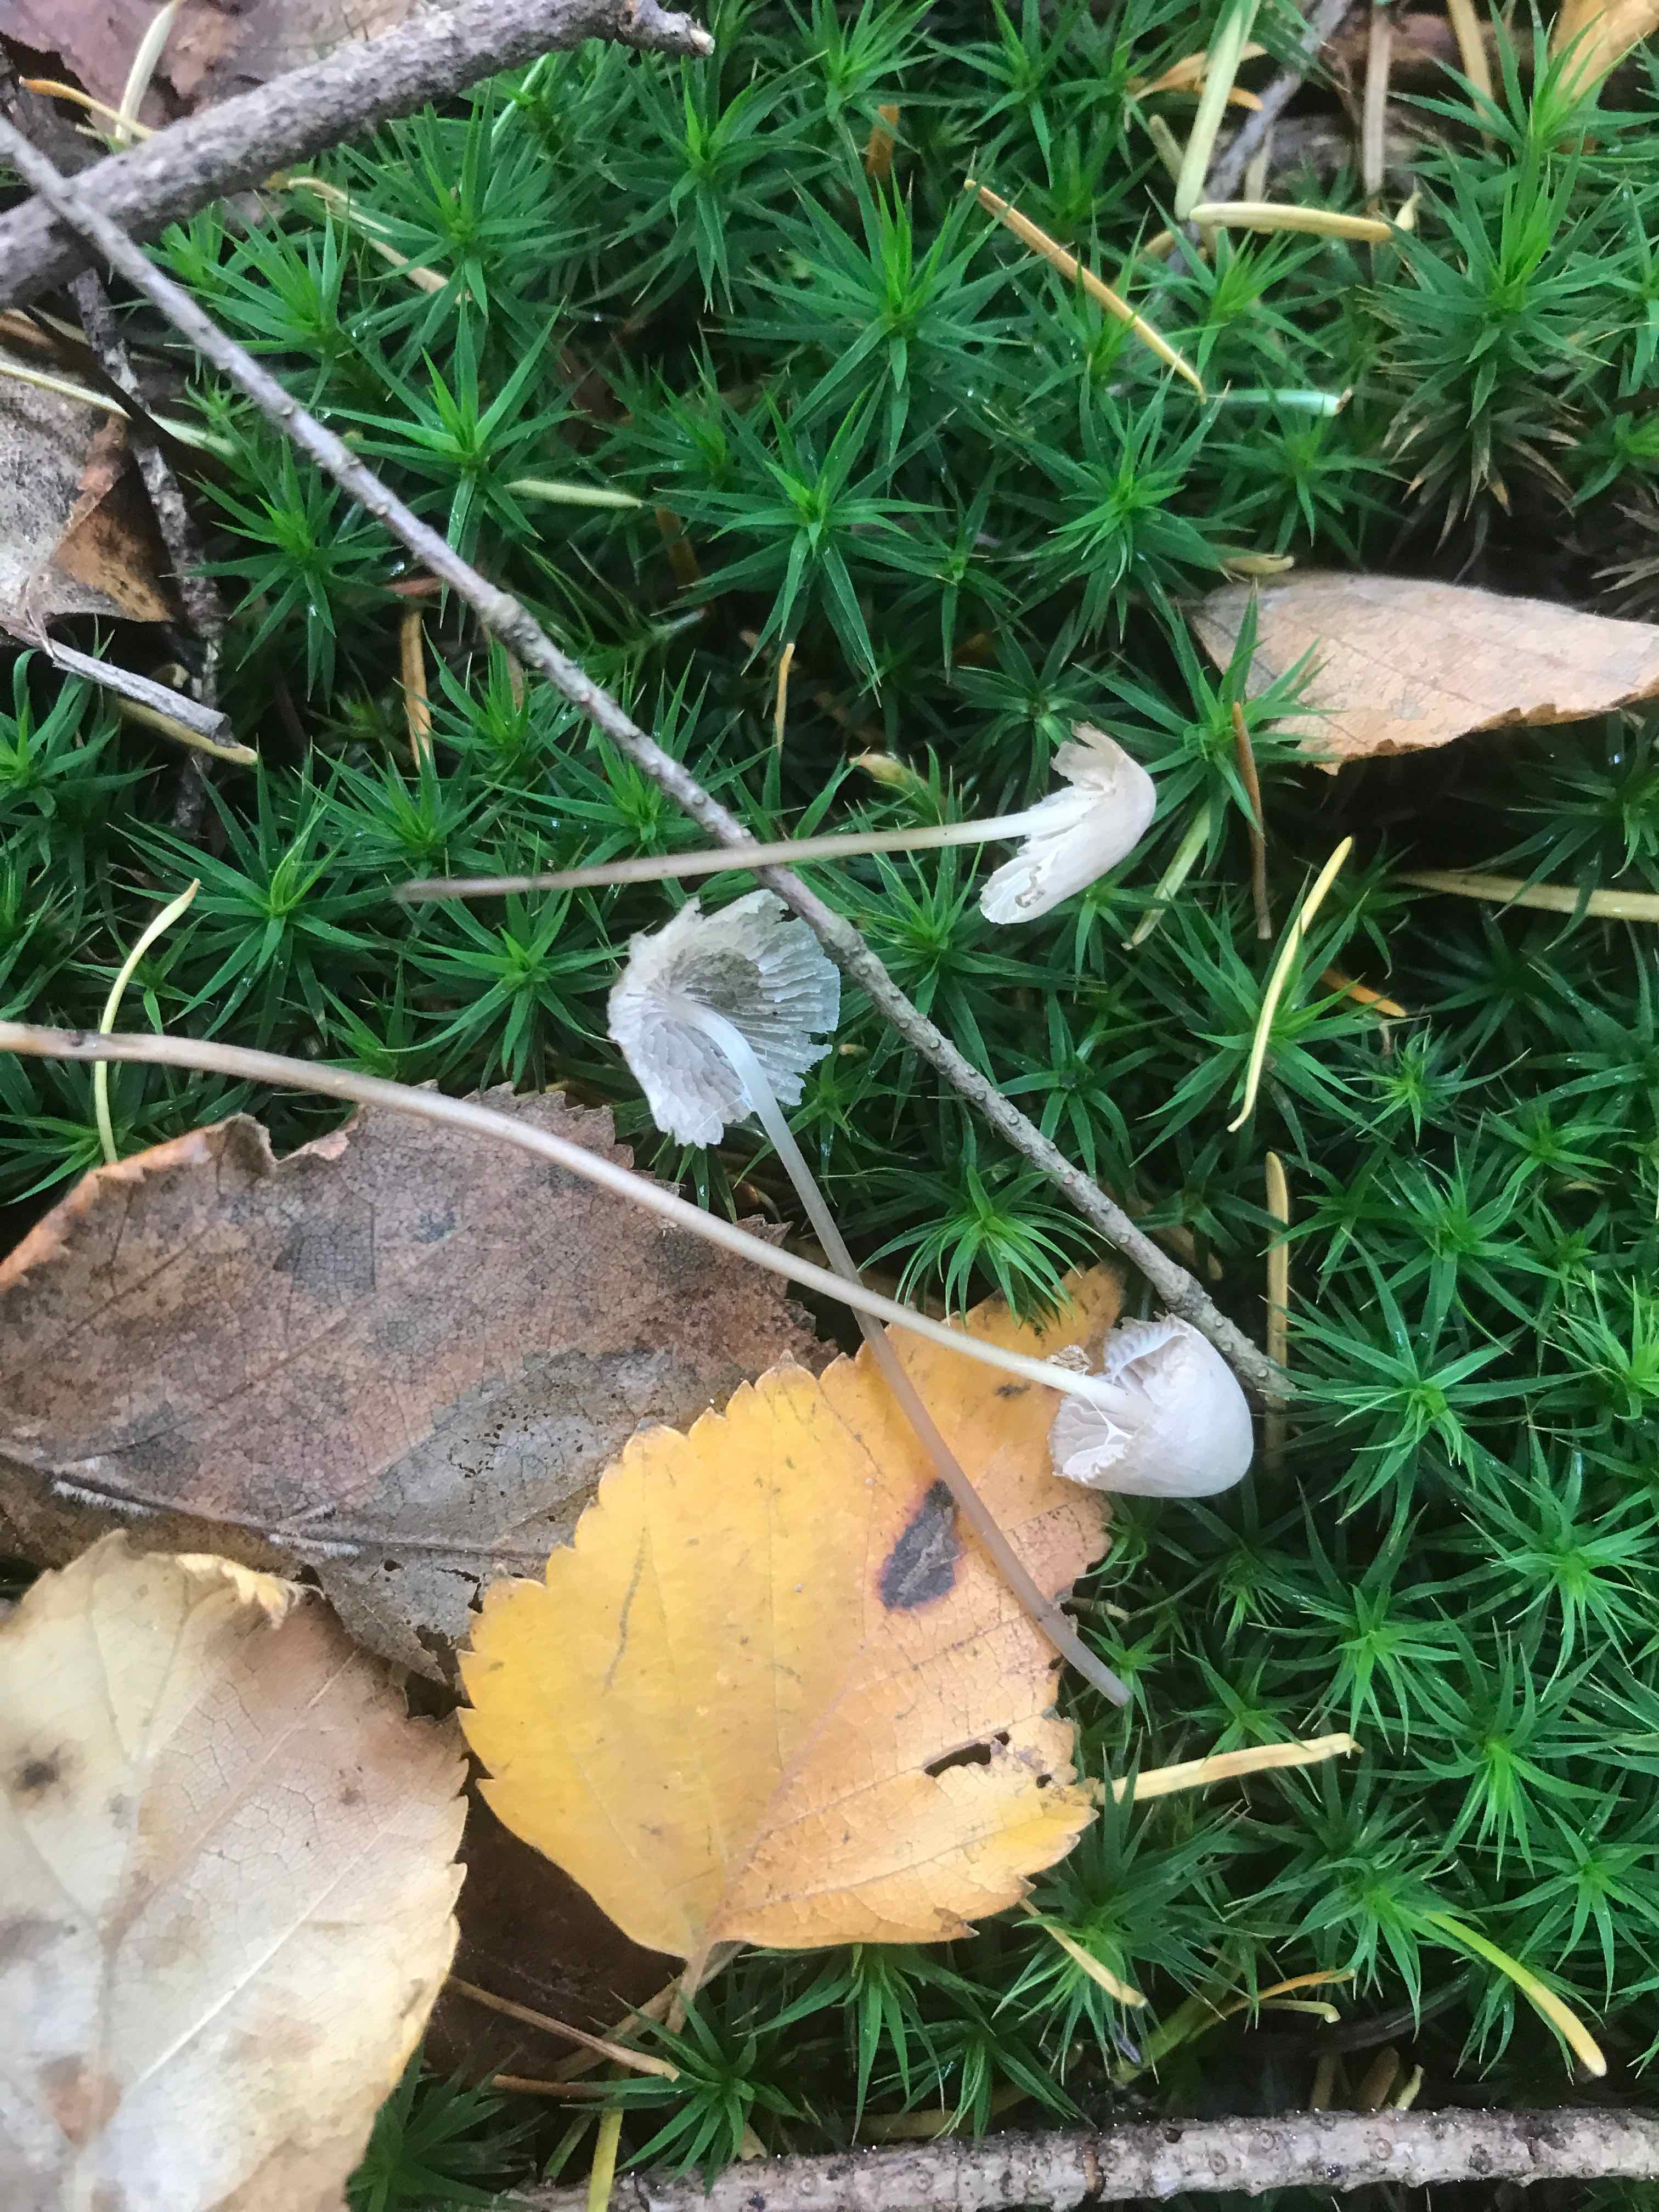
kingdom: Fungi
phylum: Basidiomycota
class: Agaricomycetes
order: Agaricales
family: Mycenaceae
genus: Mycena
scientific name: Mycena
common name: huesvamp
